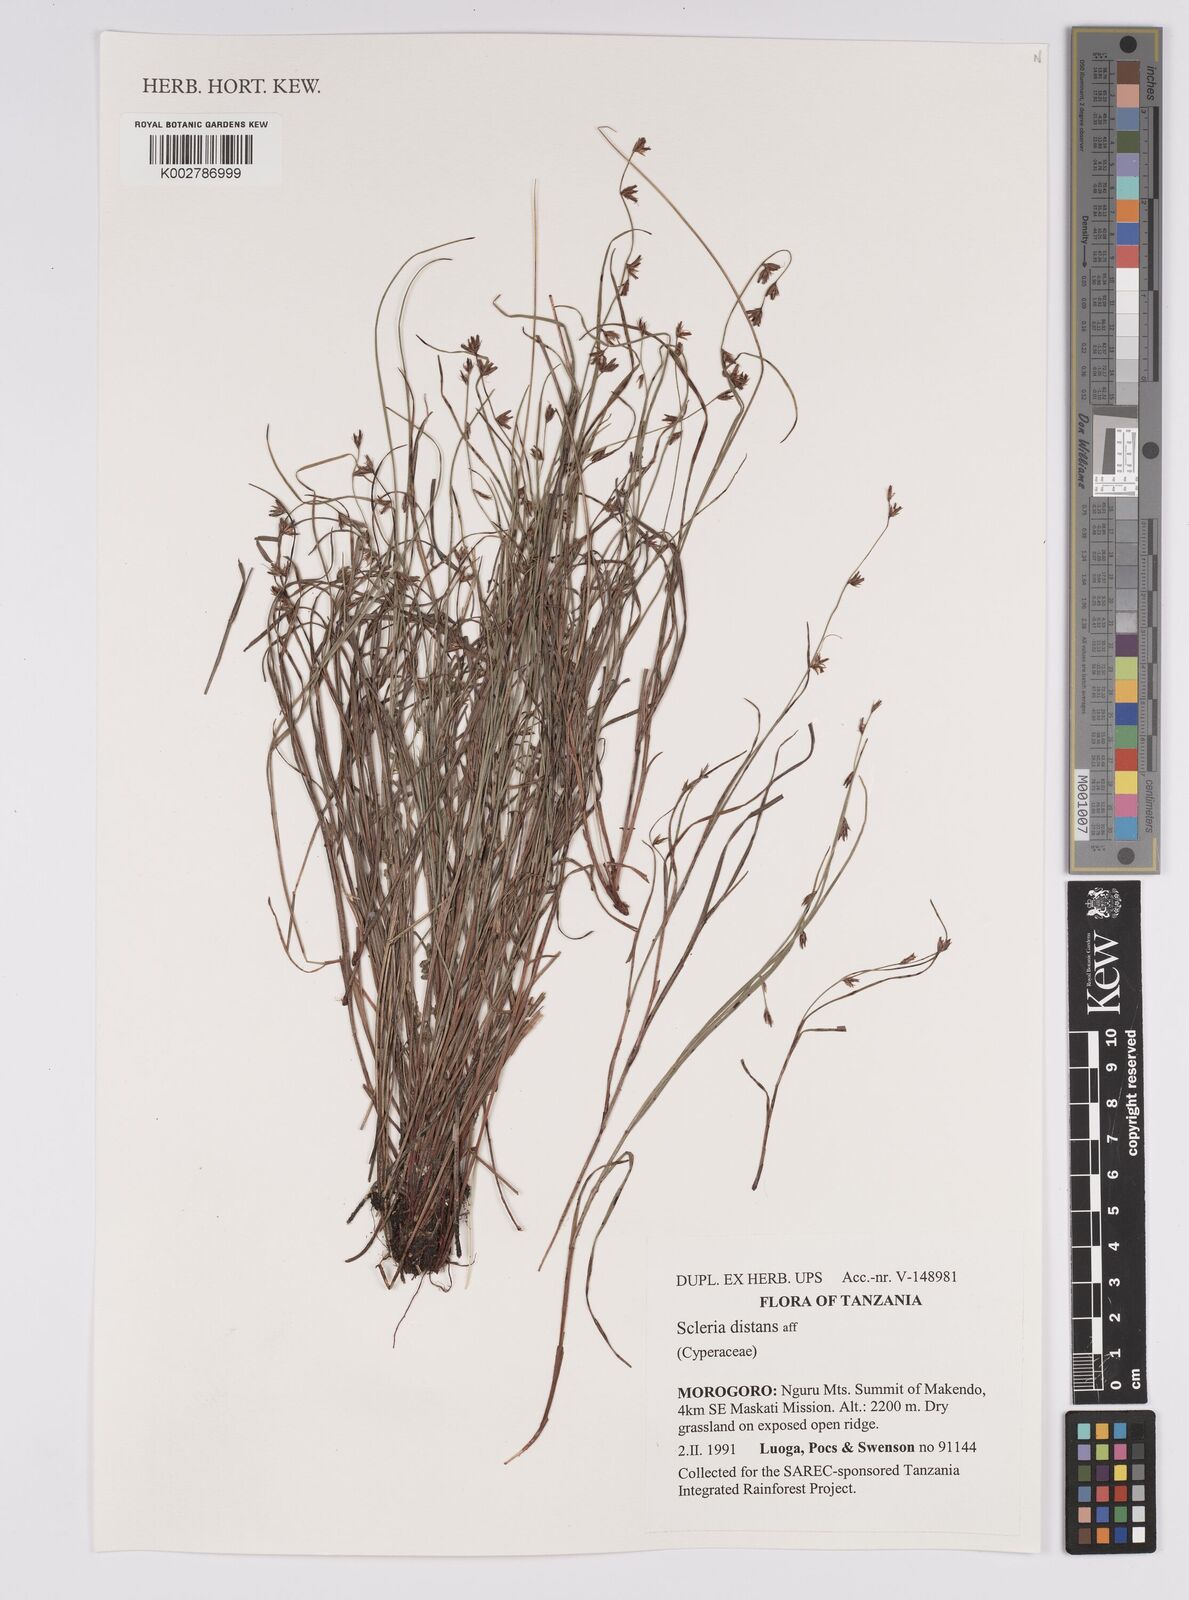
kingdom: Plantae
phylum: Tracheophyta
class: Liliopsida
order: Poales
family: Cyperaceae
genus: Scleria
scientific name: Scleria distans
